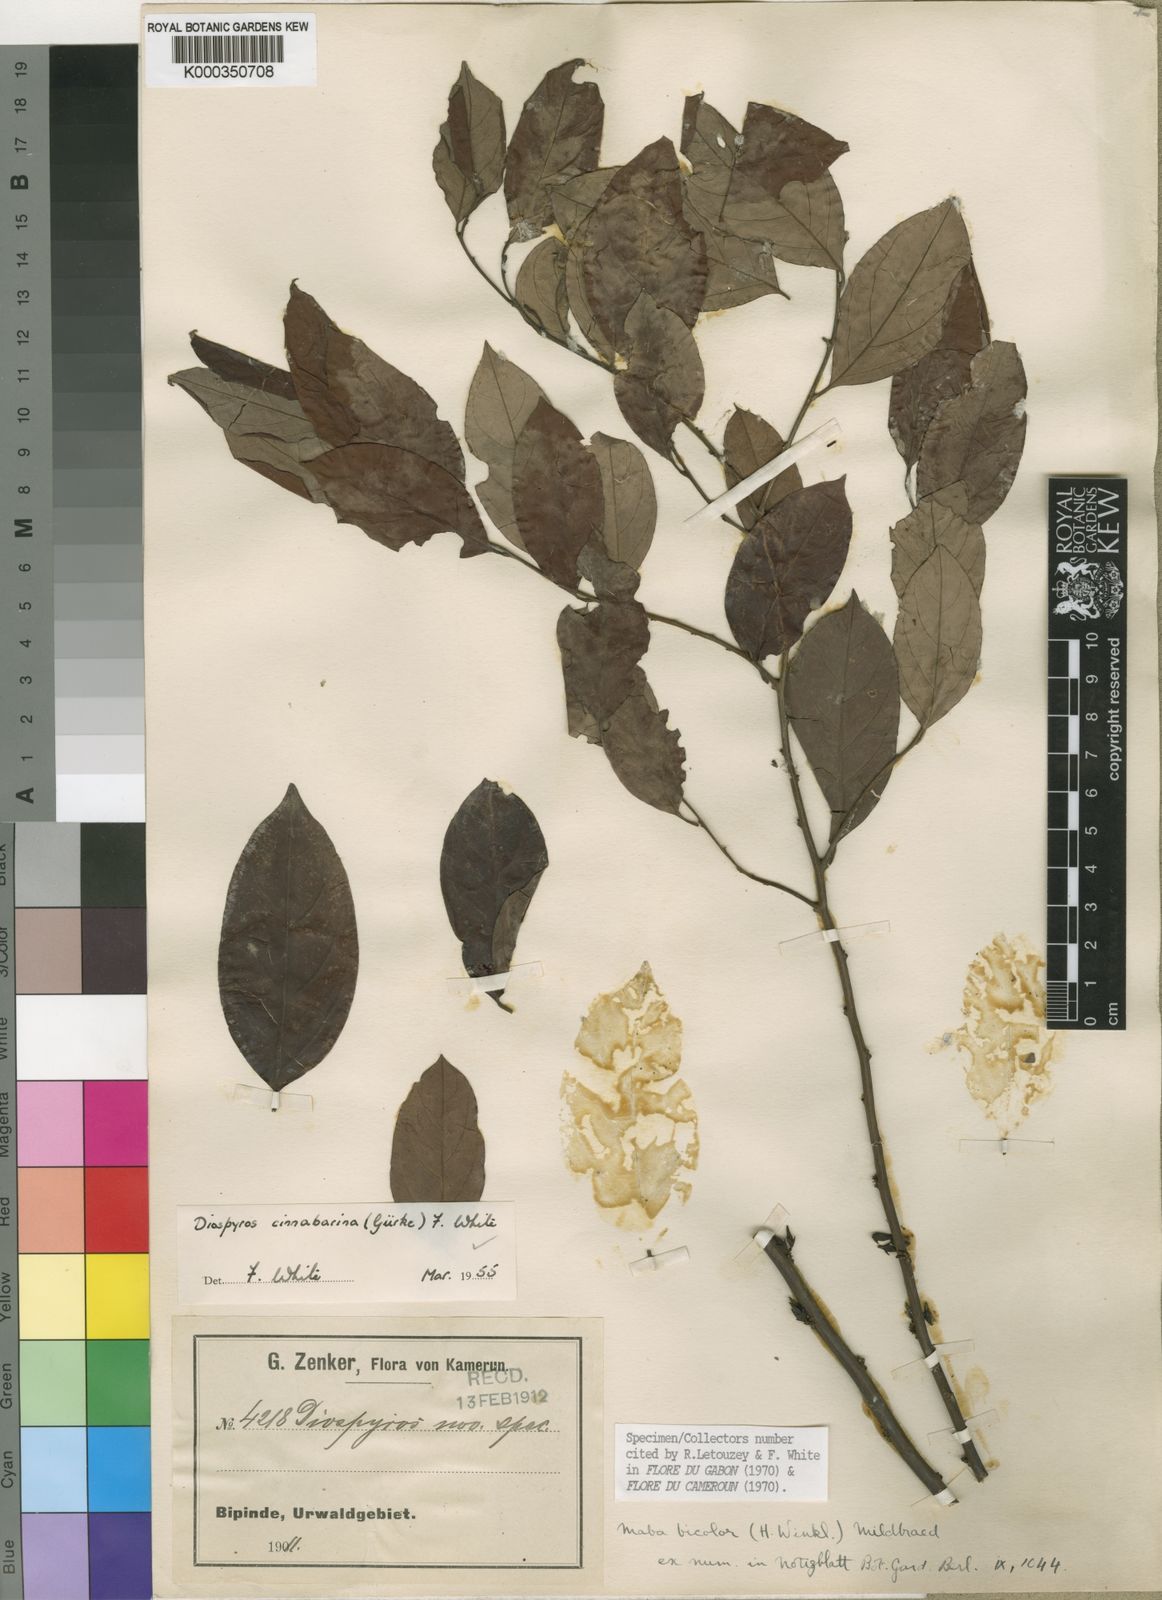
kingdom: Plantae
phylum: Tracheophyta
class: Magnoliopsida
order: Ericales
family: Ebenaceae
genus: Diospyros
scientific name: Diospyros
